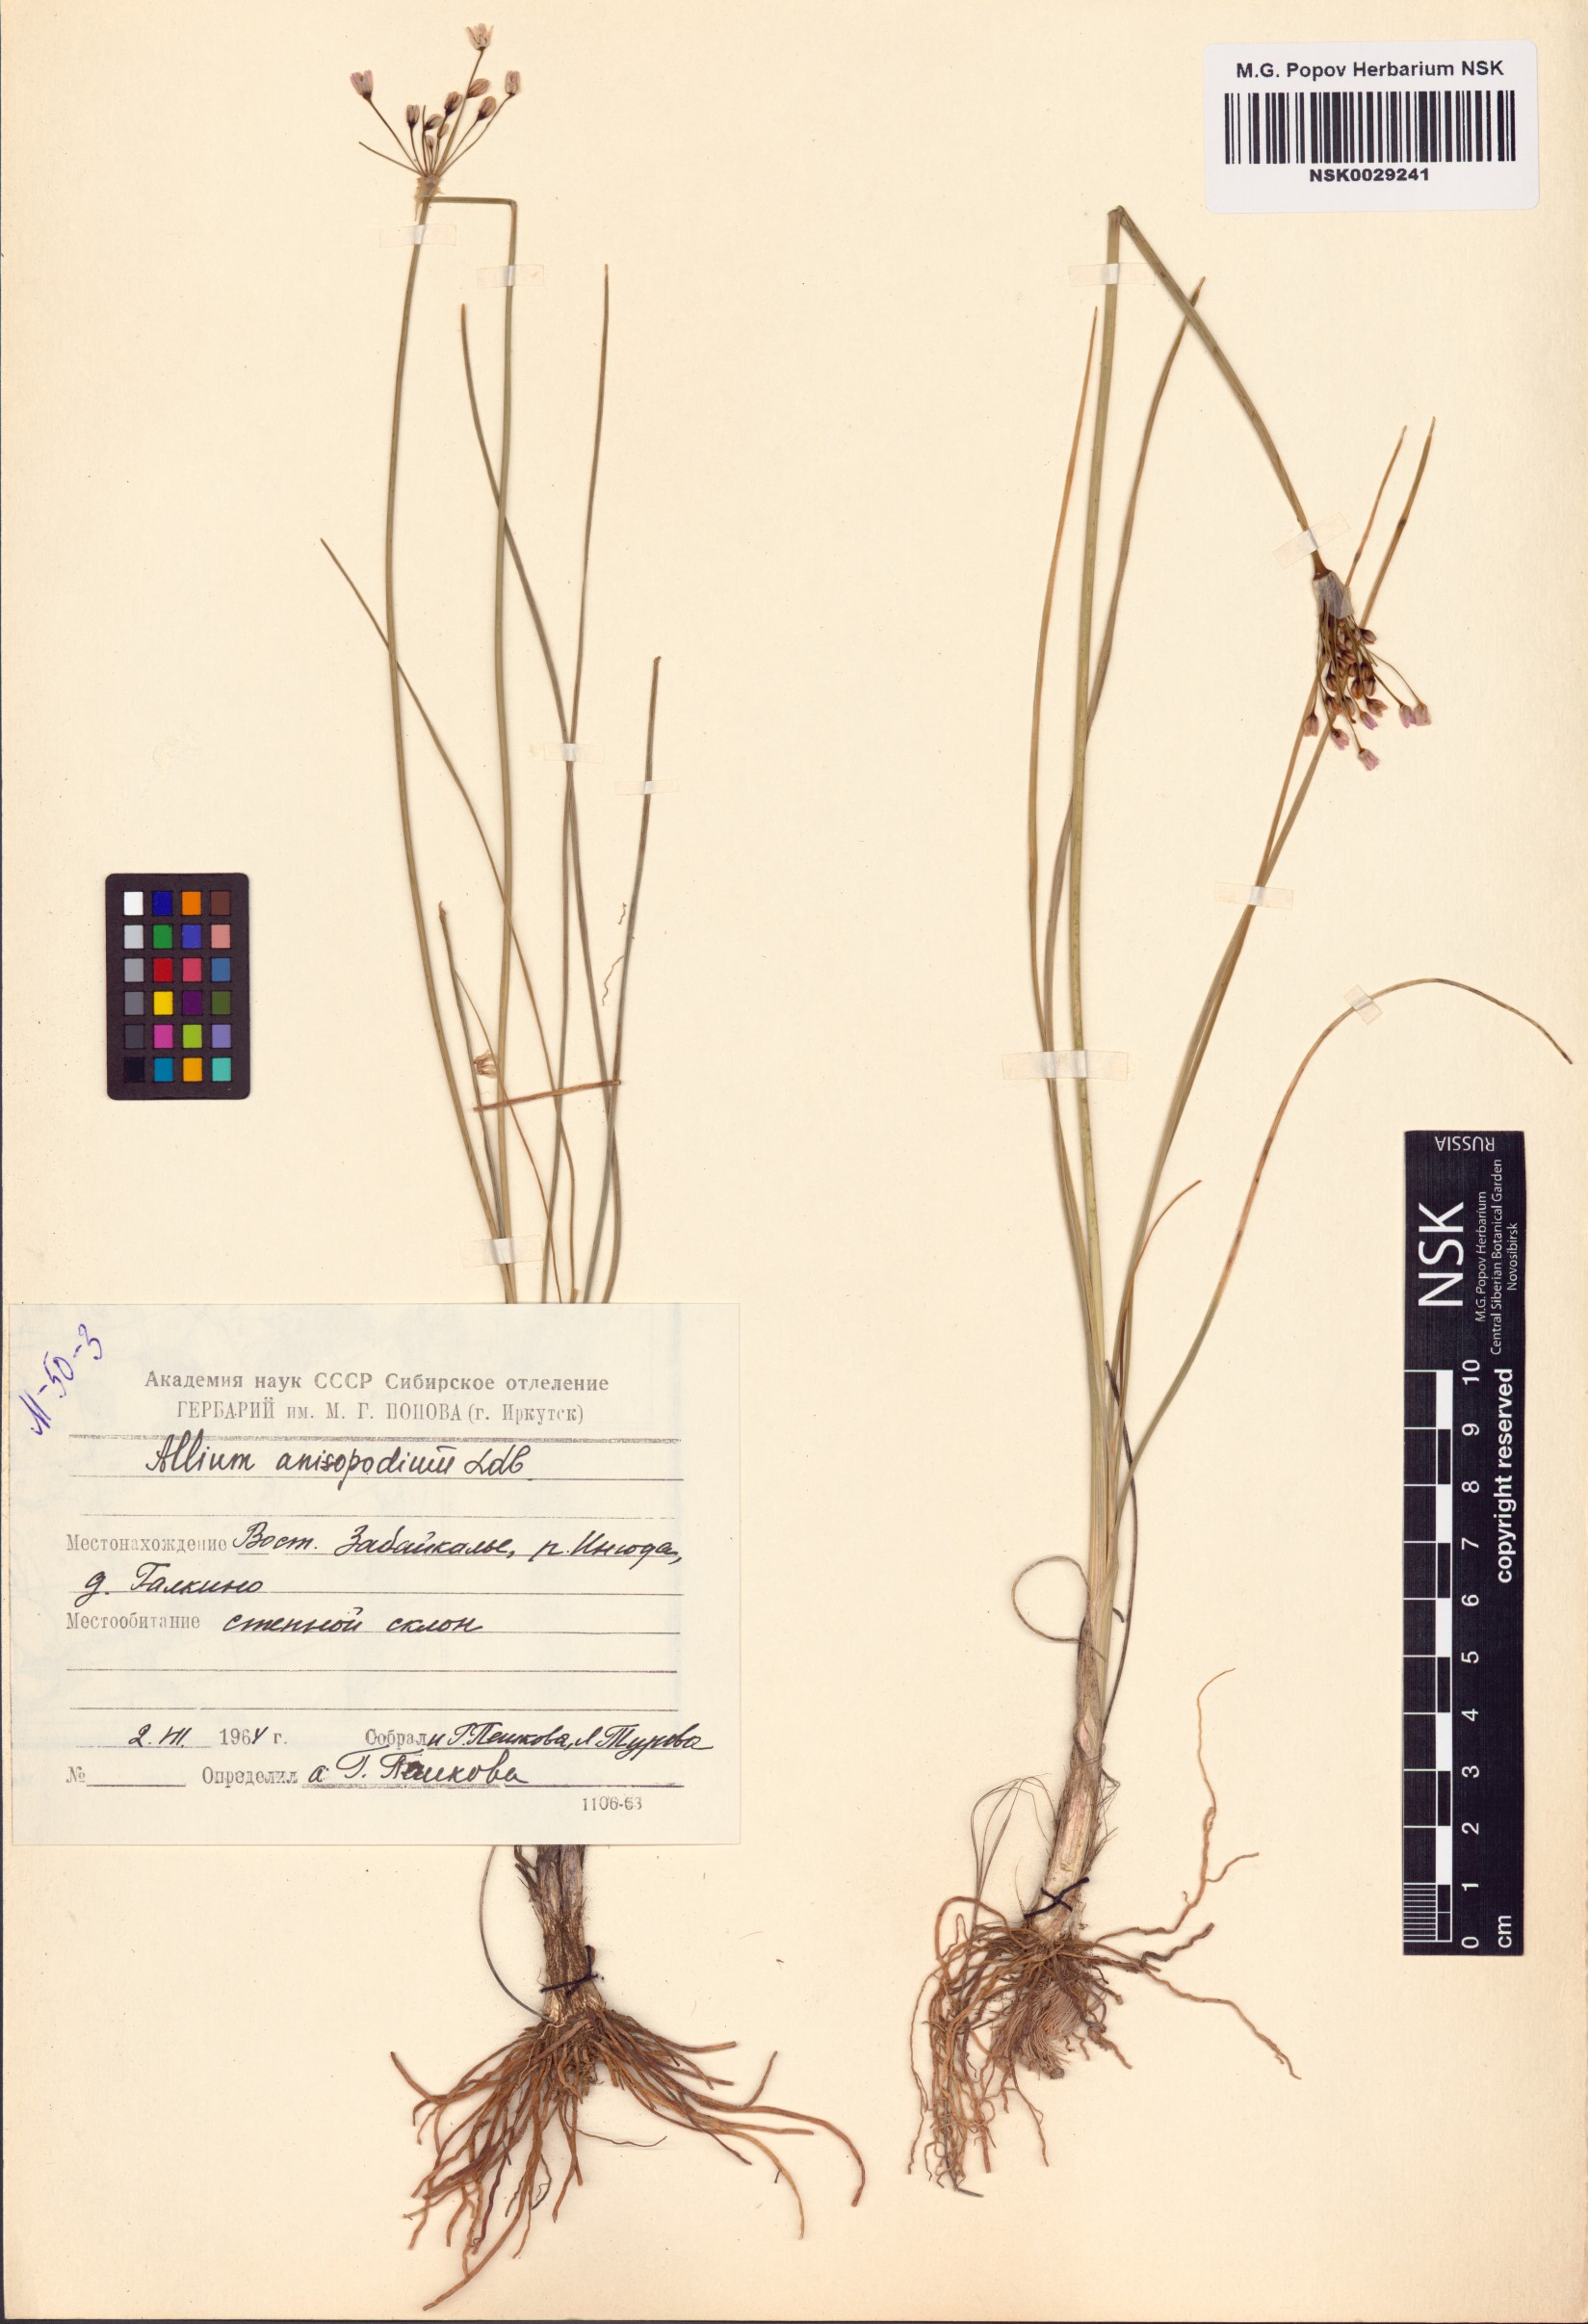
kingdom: Plantae
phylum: Tracheophyta
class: Liliopsida
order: Asparagales
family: Amaryllidaceae
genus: Allium
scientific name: Allium anisopodium
